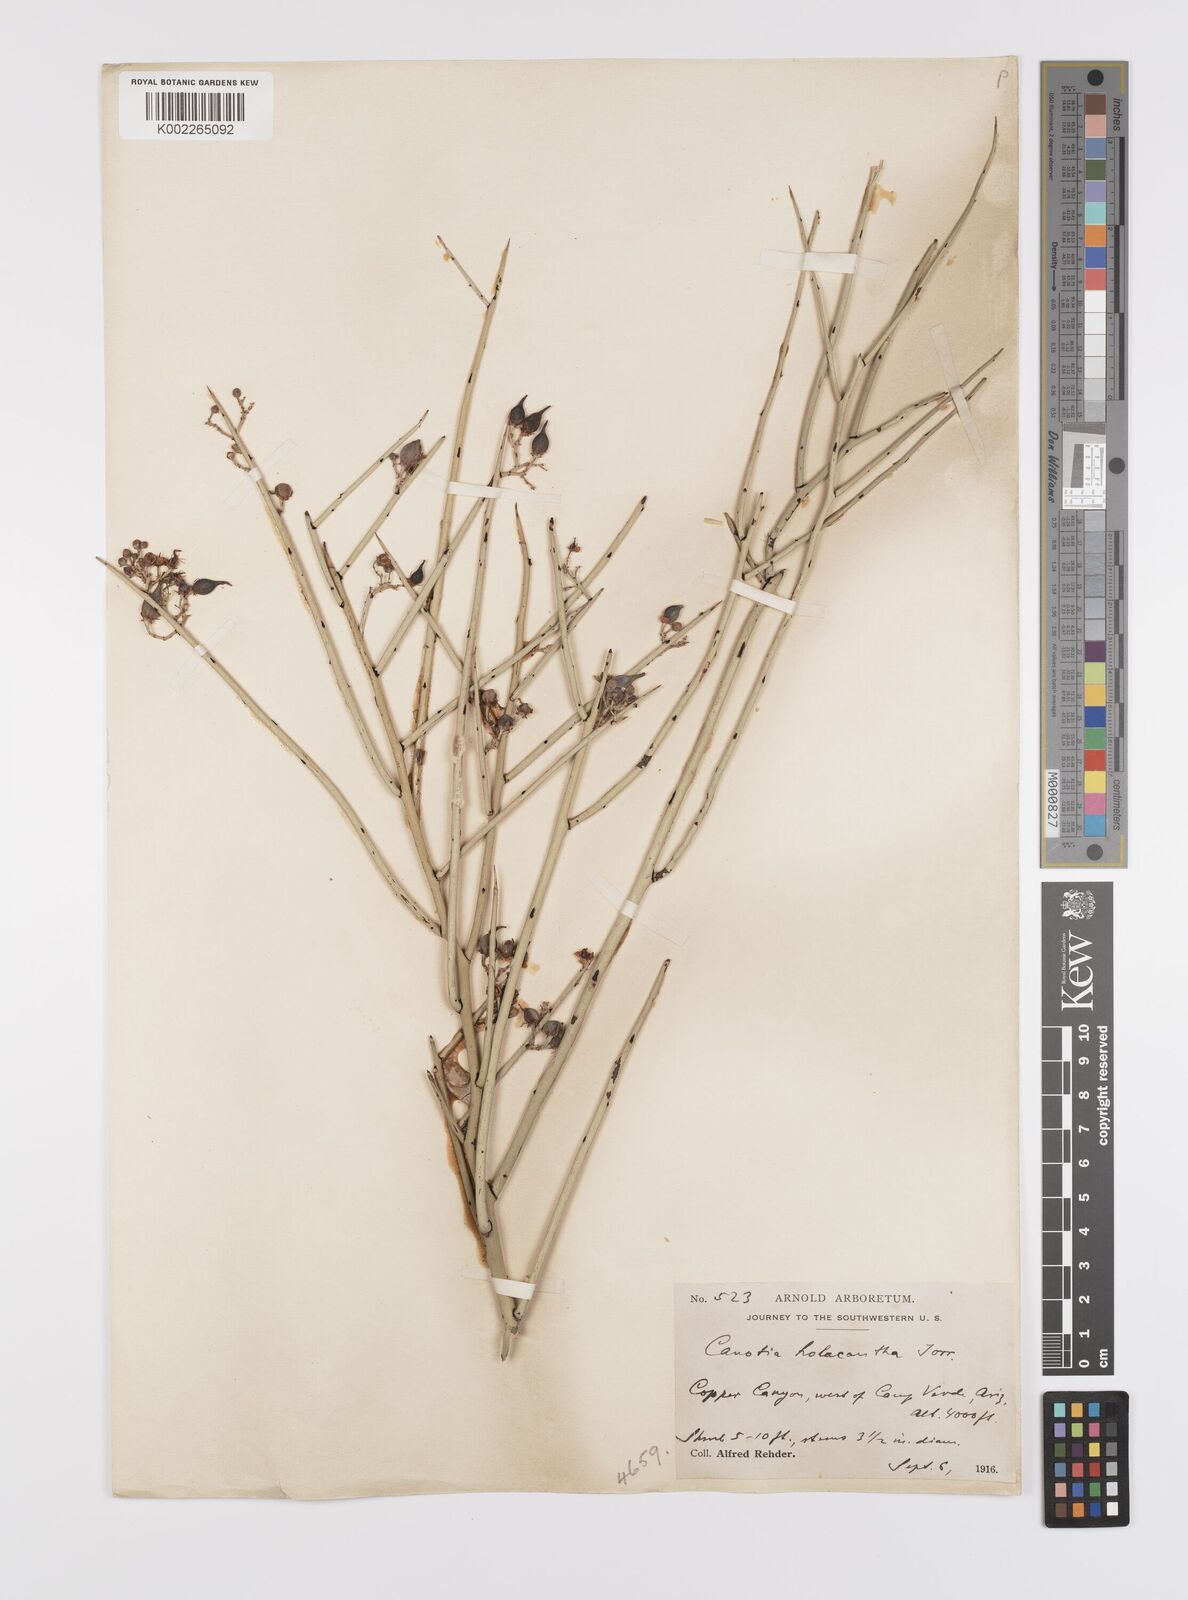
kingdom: Plantae
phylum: Tracheophyta
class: Magnoliopsida
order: Celastrales
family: Celastraceae
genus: Canotia
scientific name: Canotia holacantha
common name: Crucifixion thorns
